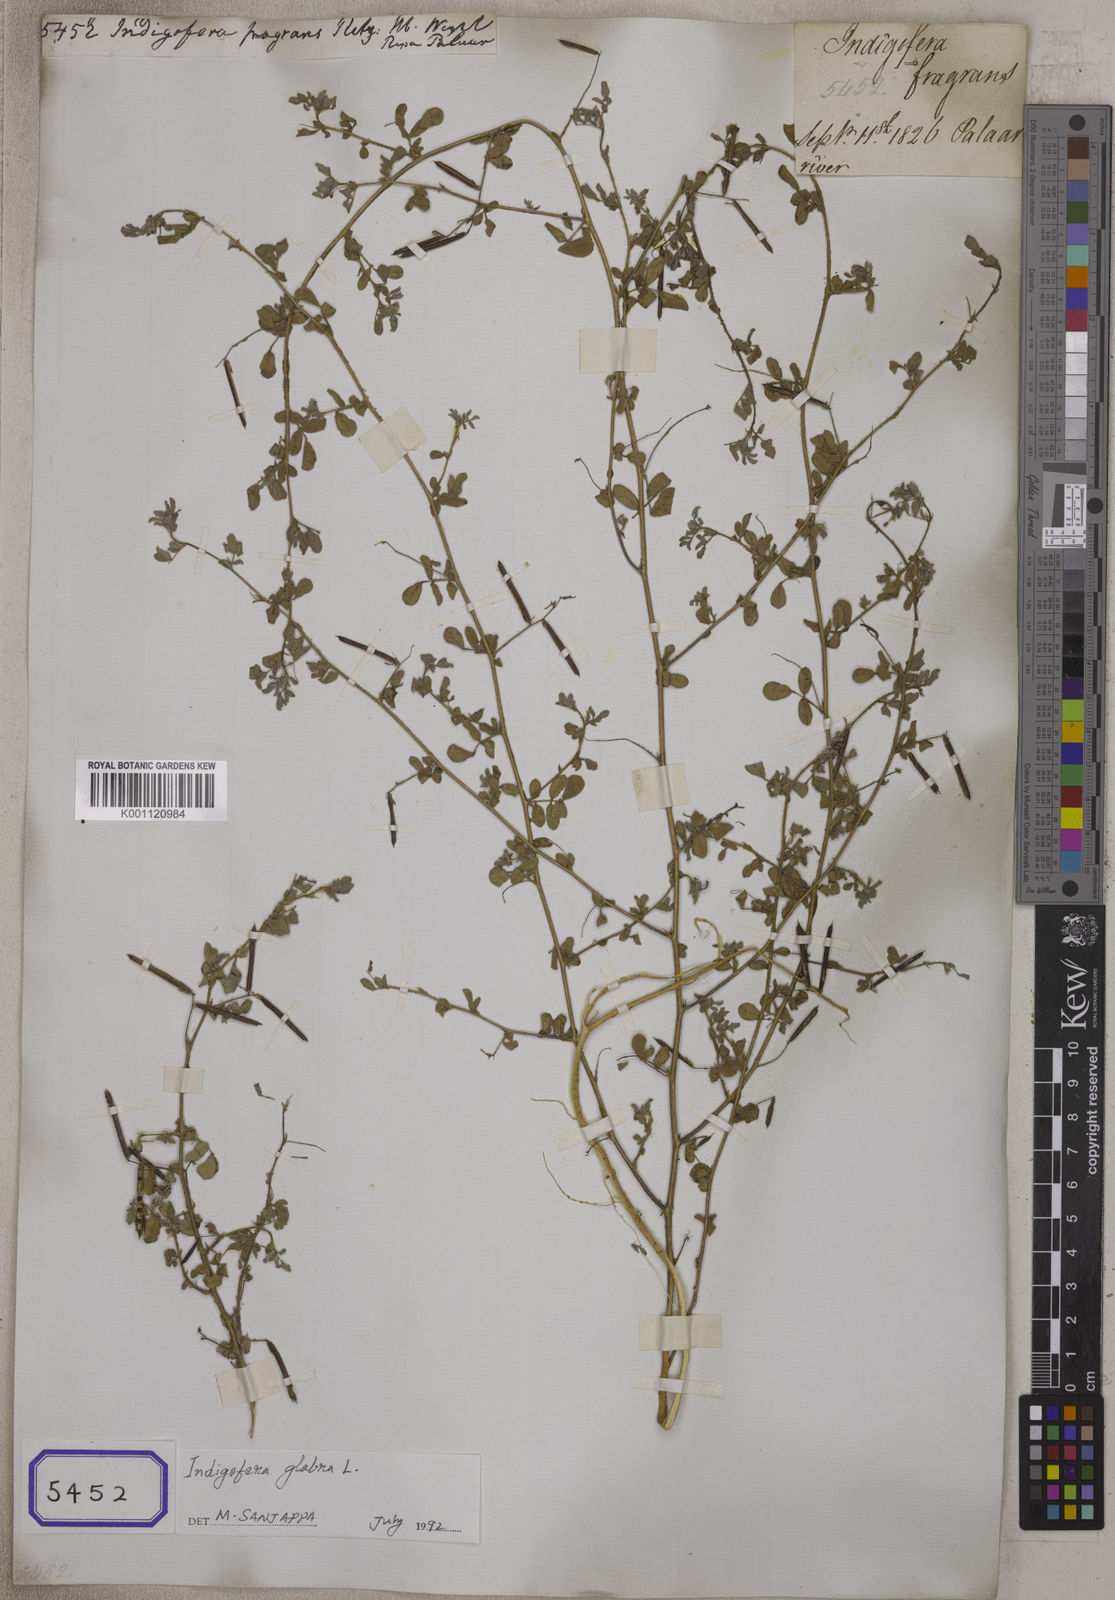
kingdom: Plantae
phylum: Tracheophyta
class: Magnoliopsida
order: Fabales
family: Fabaceae
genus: Indigofera
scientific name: Indigofera glabra
